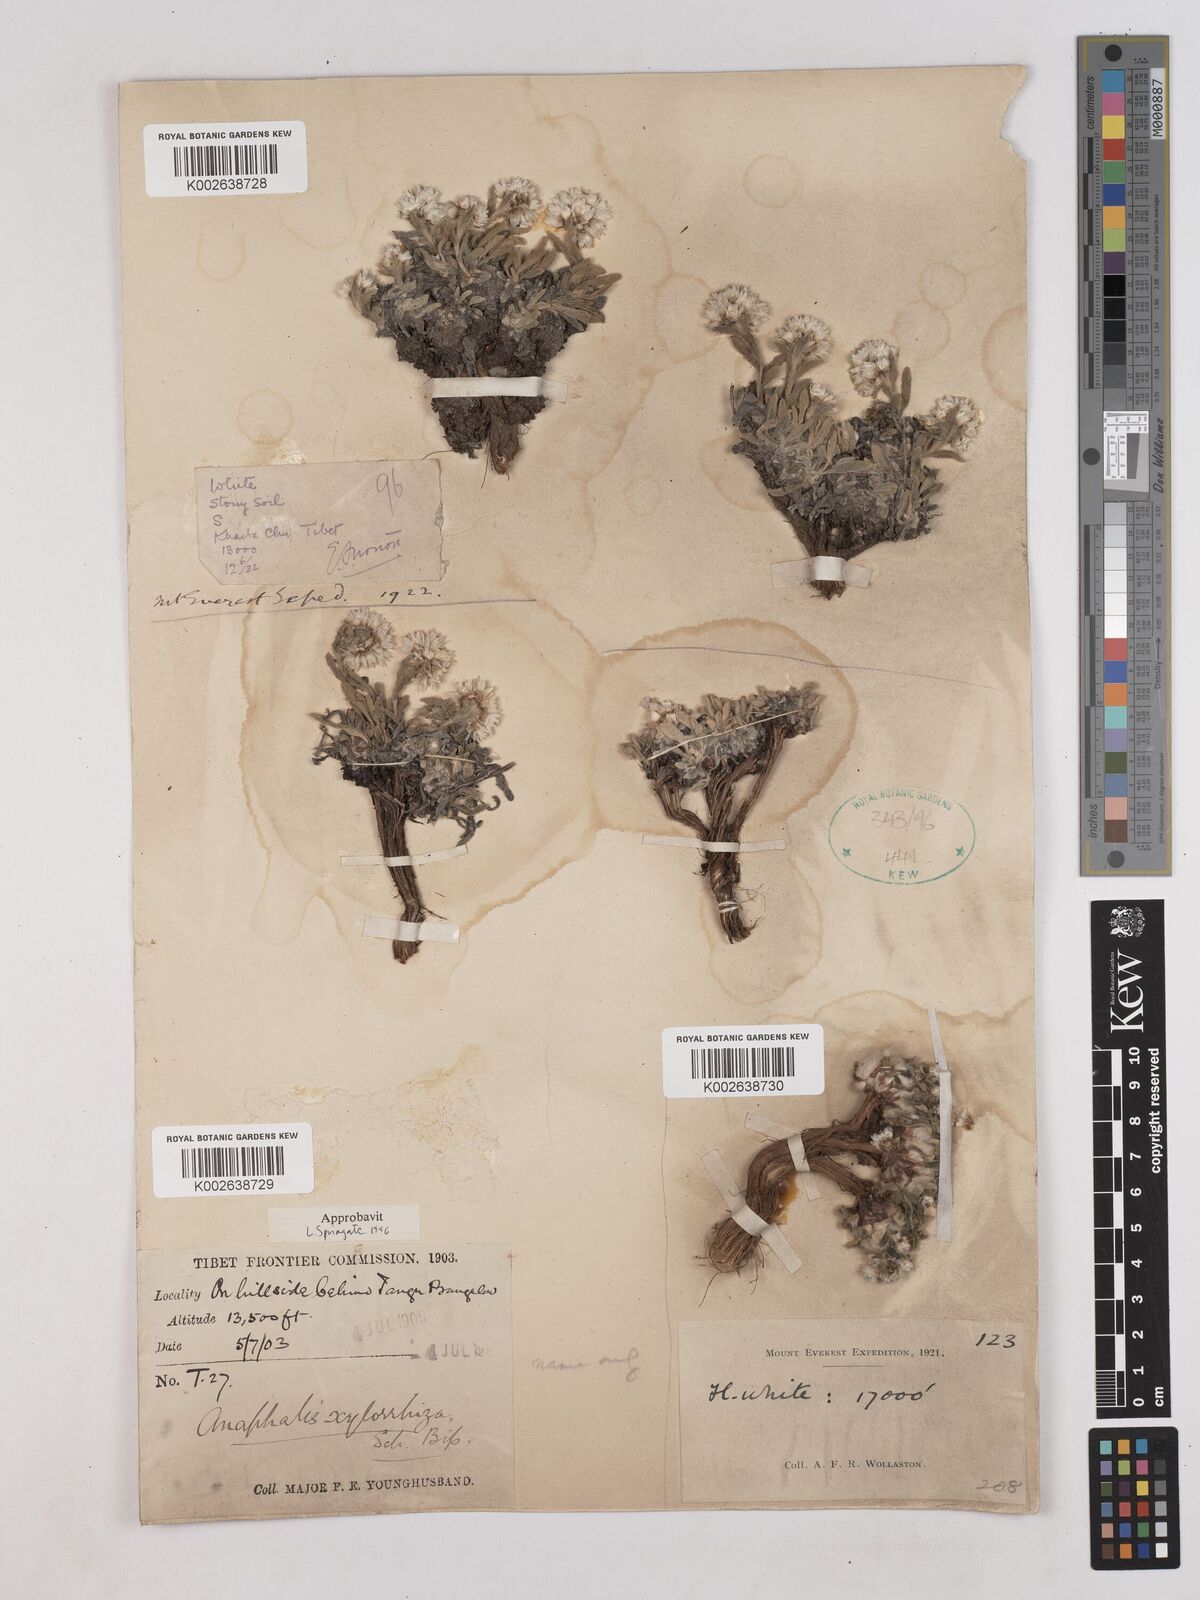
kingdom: Plantae
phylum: Tracheophyta
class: Magnoliopsida
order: Asterales
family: Asteraceae
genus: Anaphalis
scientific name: Anaphalis xylorhiza
